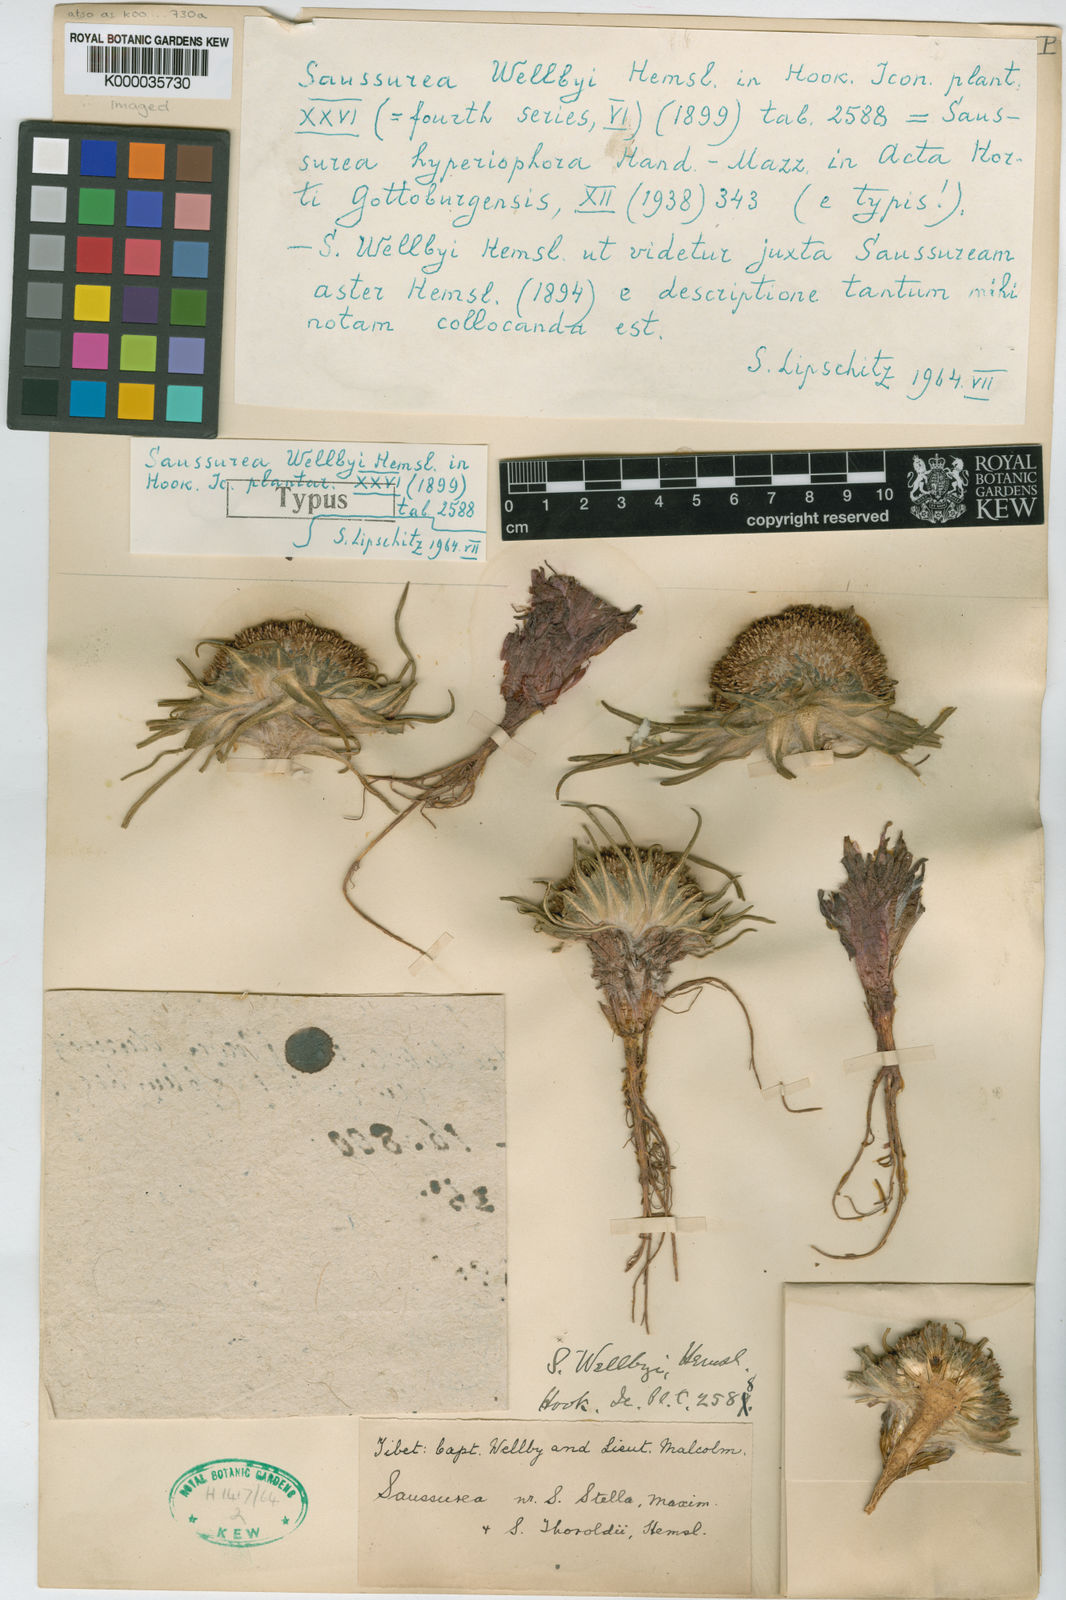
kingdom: Plantae
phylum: Tracheophyta
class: Magnoliopsida
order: Asterales
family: Asteraceae
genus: Saussurea
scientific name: Saussurea wellbyi
